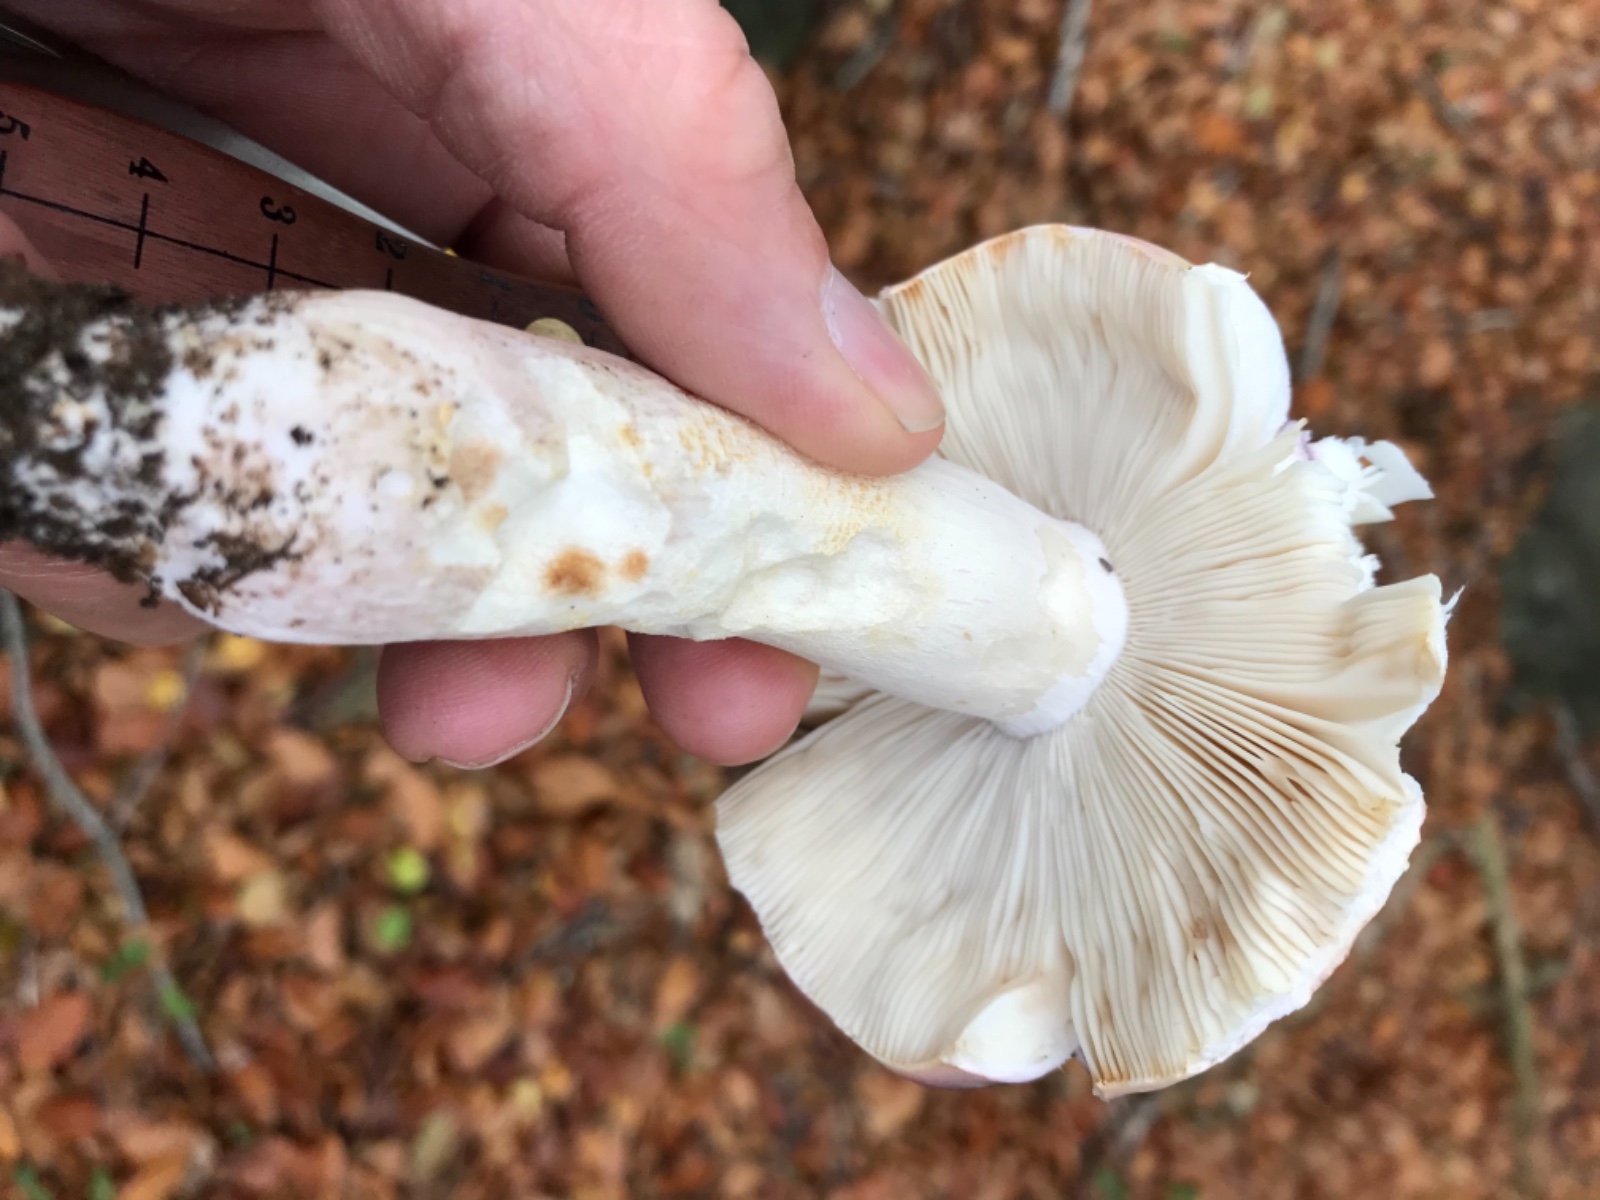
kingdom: Fungi
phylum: Basidiomycota
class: Agaricomycetes
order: Russulales
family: Russulaceae
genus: Russula
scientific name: Russula
